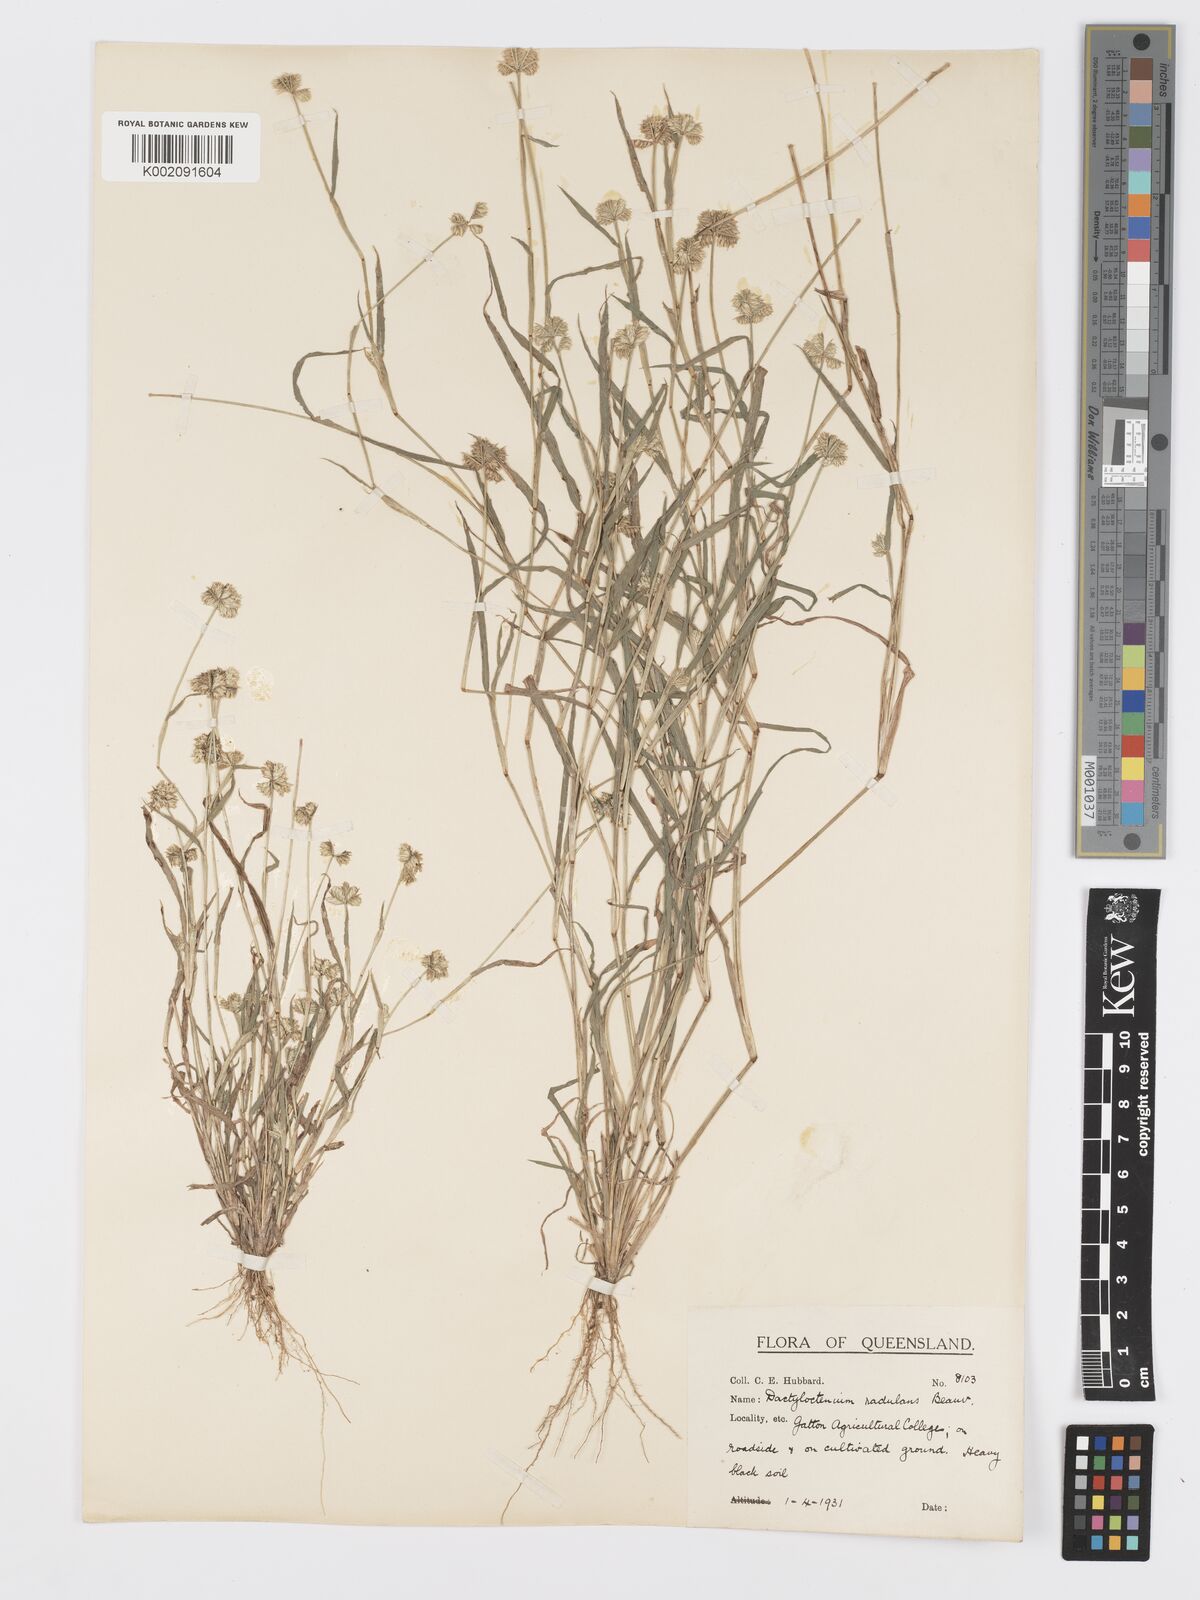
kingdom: Plantae
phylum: Tracheophyta
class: Liliopsida
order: Poales
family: Poaceae
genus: Dactyloctenium
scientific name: Dactyloctenium radulans
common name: Button-grass
